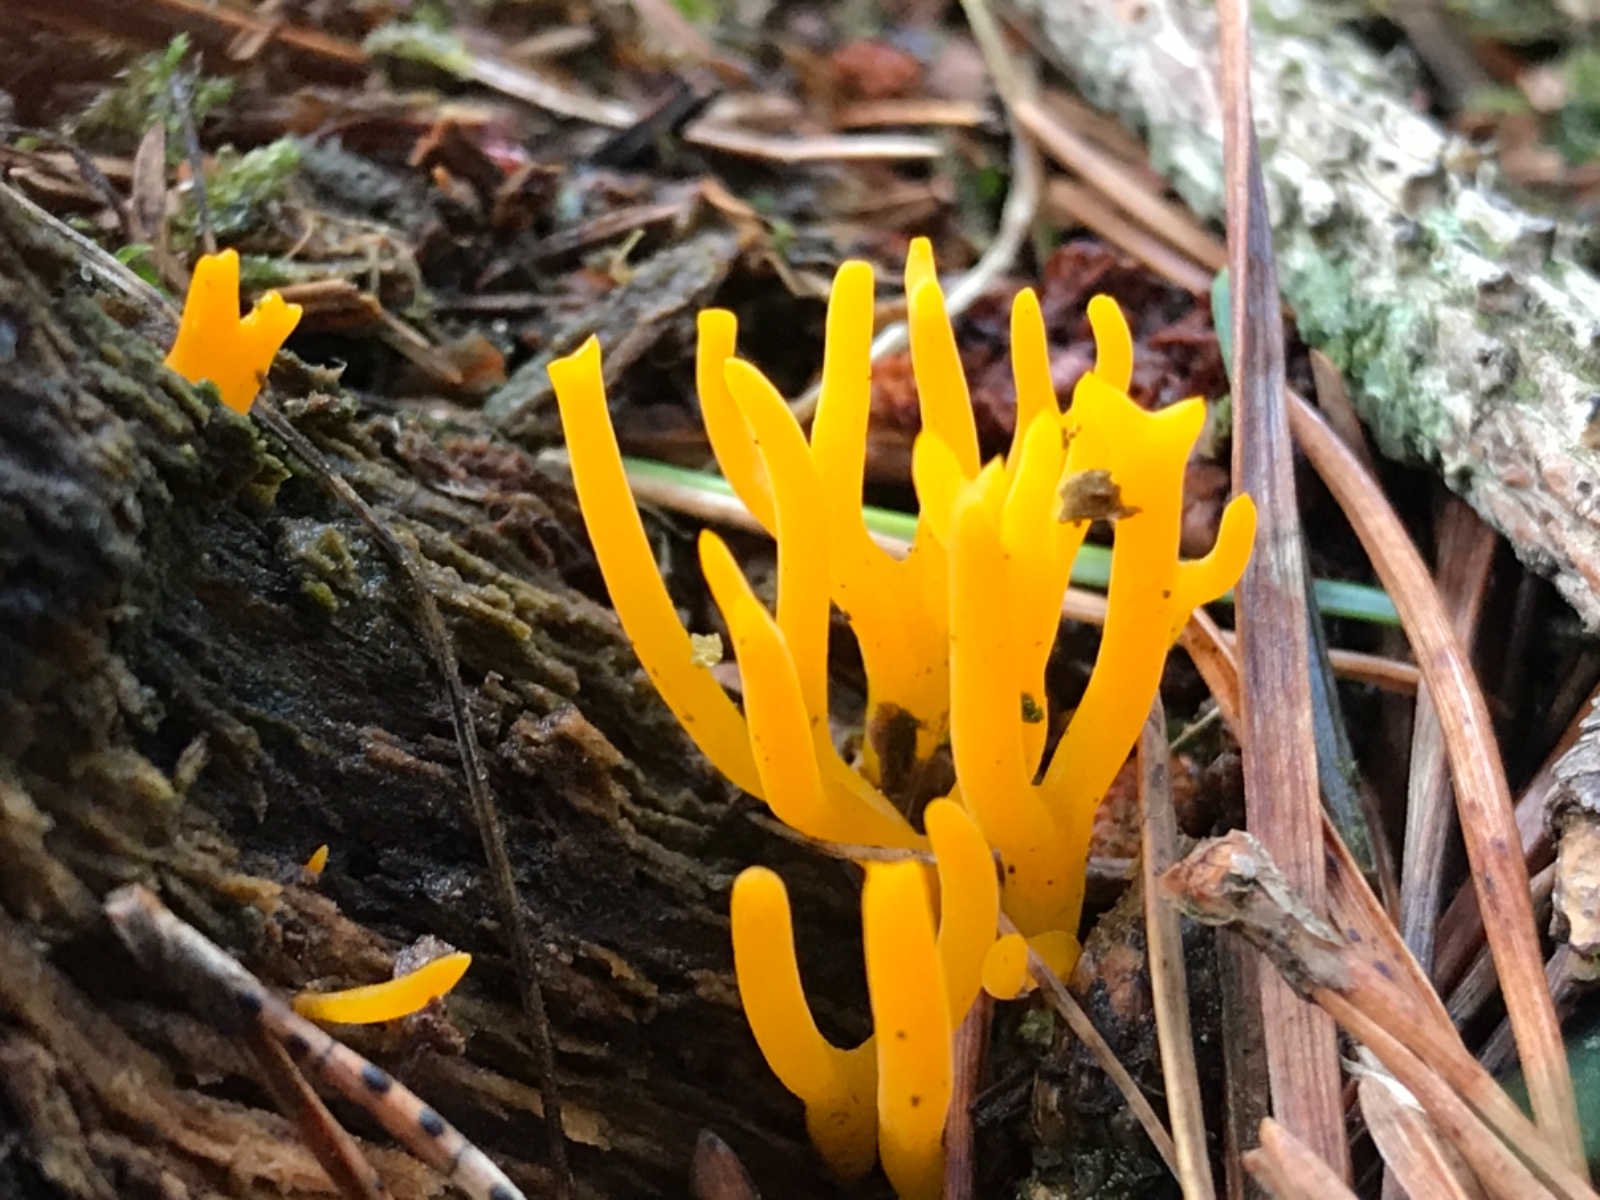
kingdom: Fungi
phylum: Basidiomycota
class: Dacrymycetes
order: Dacrymycetales
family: Dacrymycetaceae
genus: Calocera
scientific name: Calocera viscosa
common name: almindelig guldgaffel
